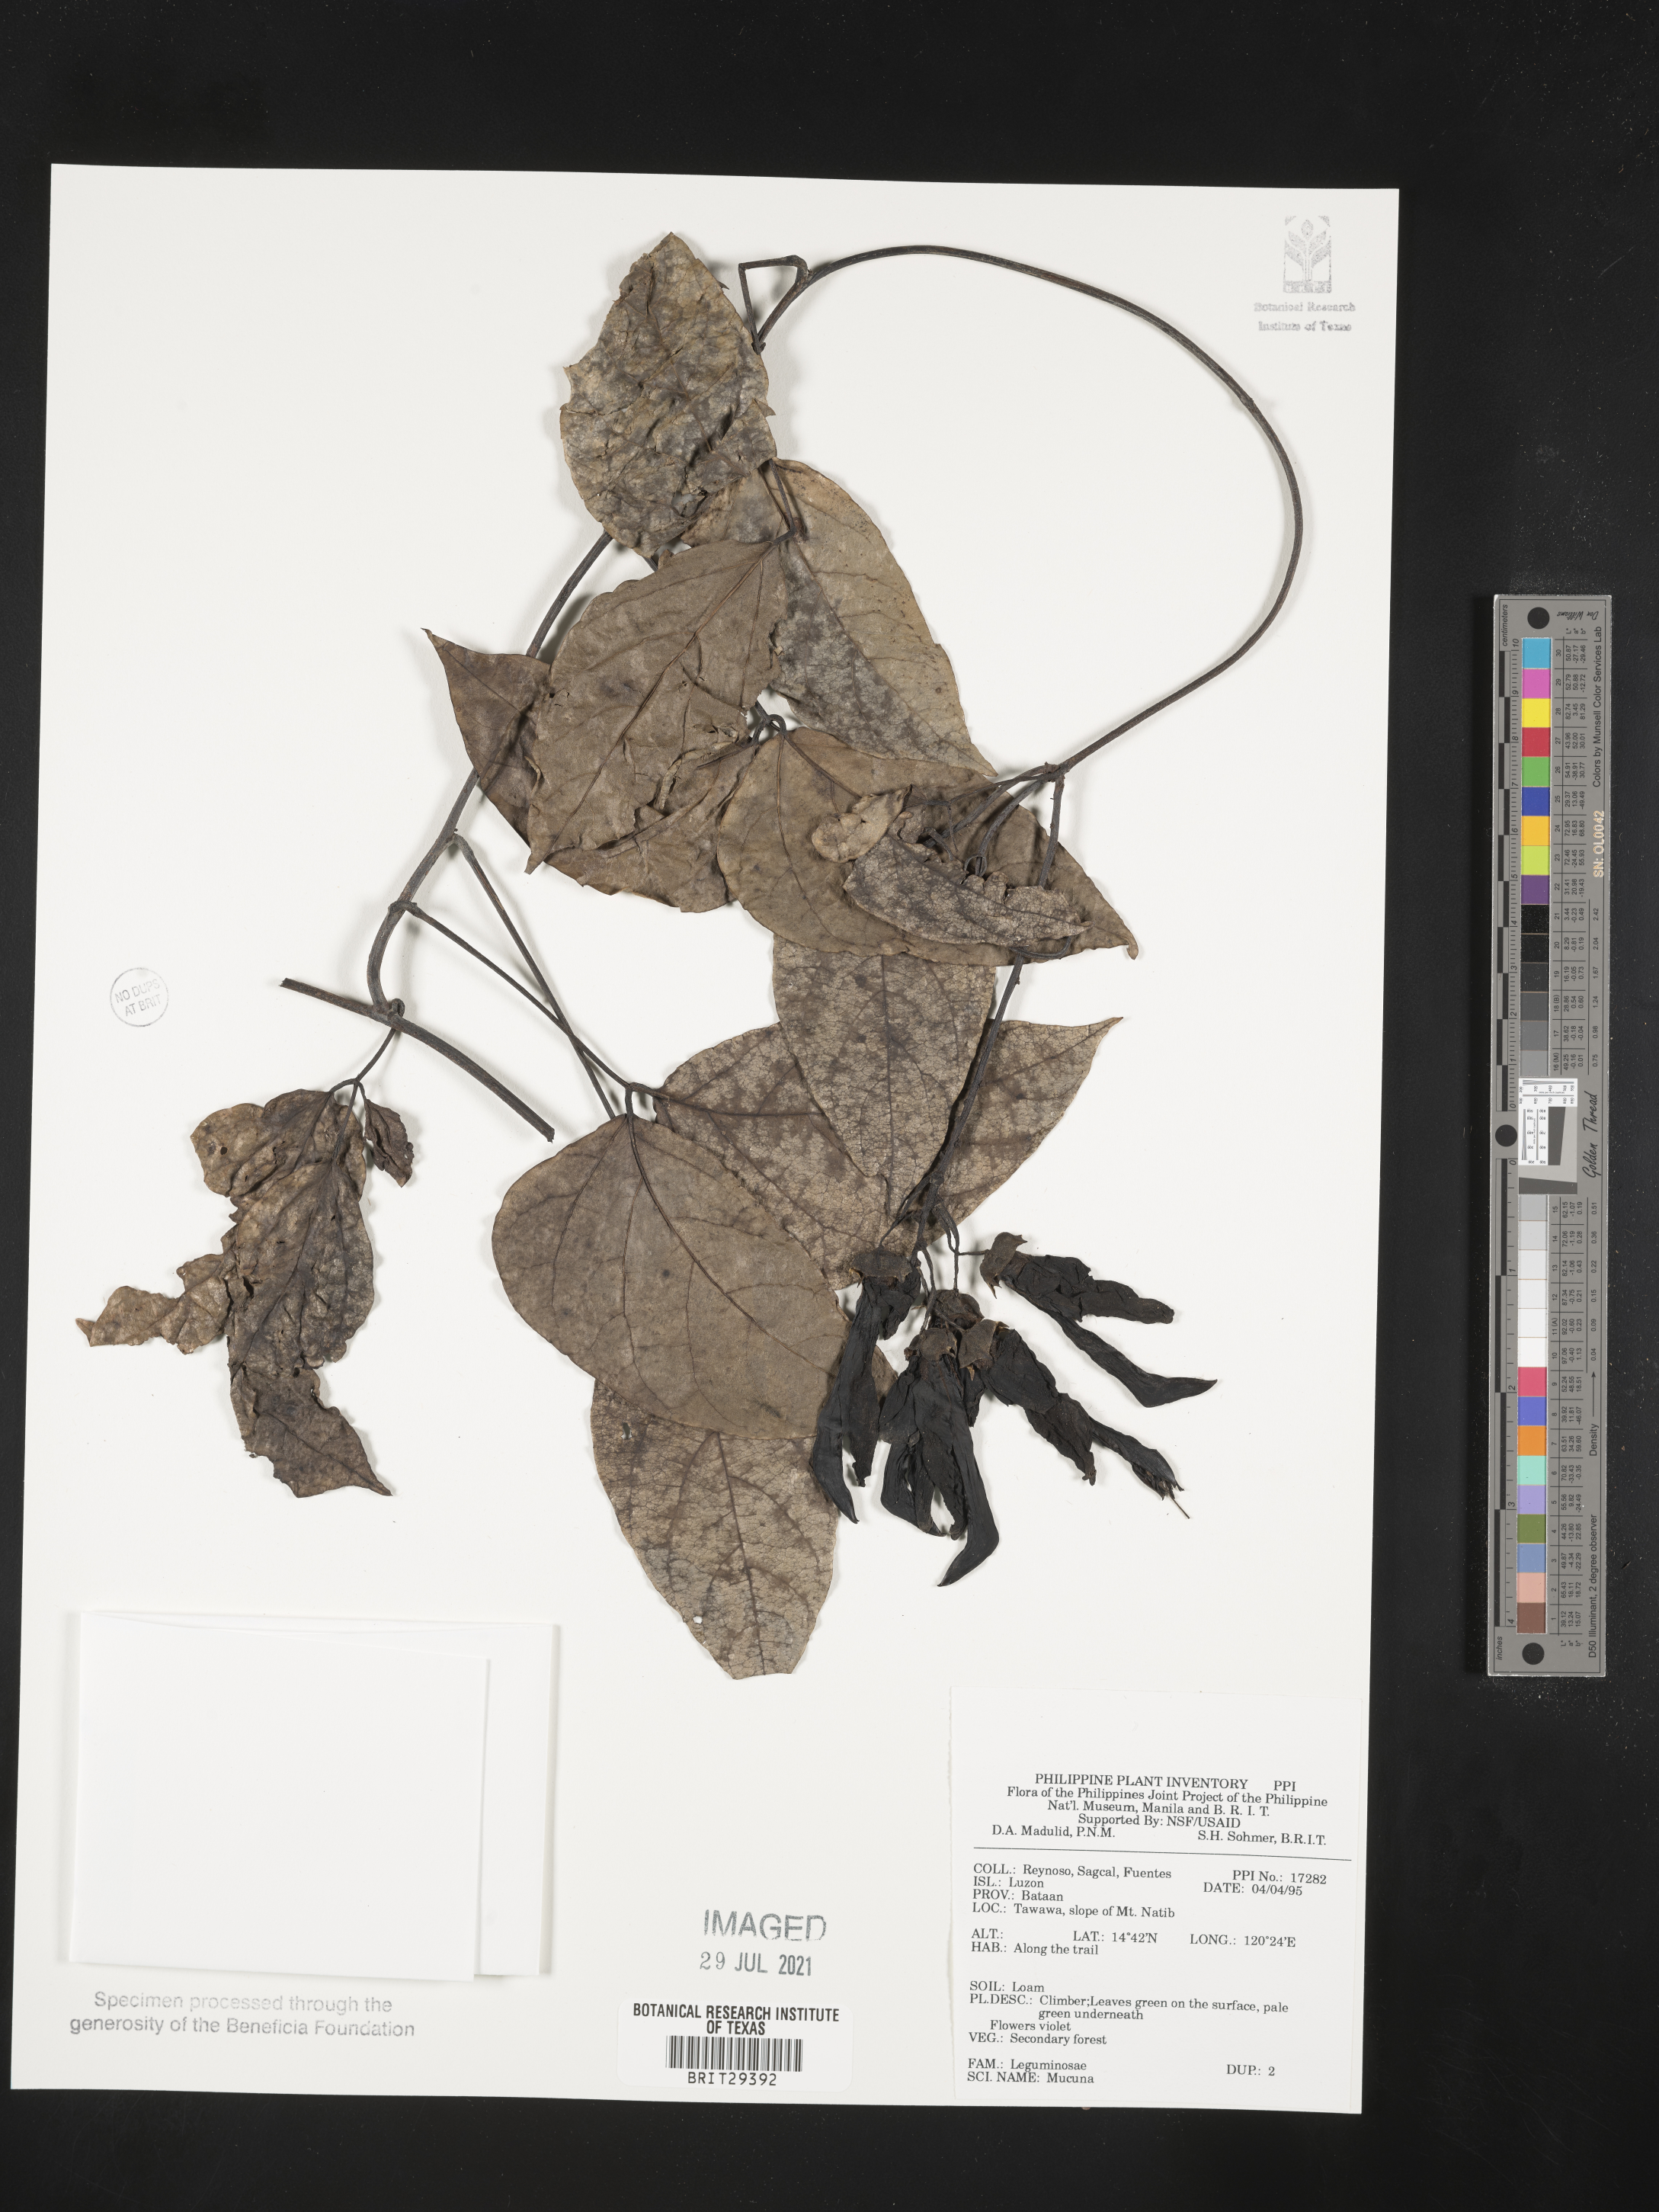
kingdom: Plantae
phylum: Tracheophyta
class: Magnoliopsida
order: Fabales
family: Fabaceae
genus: Mucuna
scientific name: Mucuna
